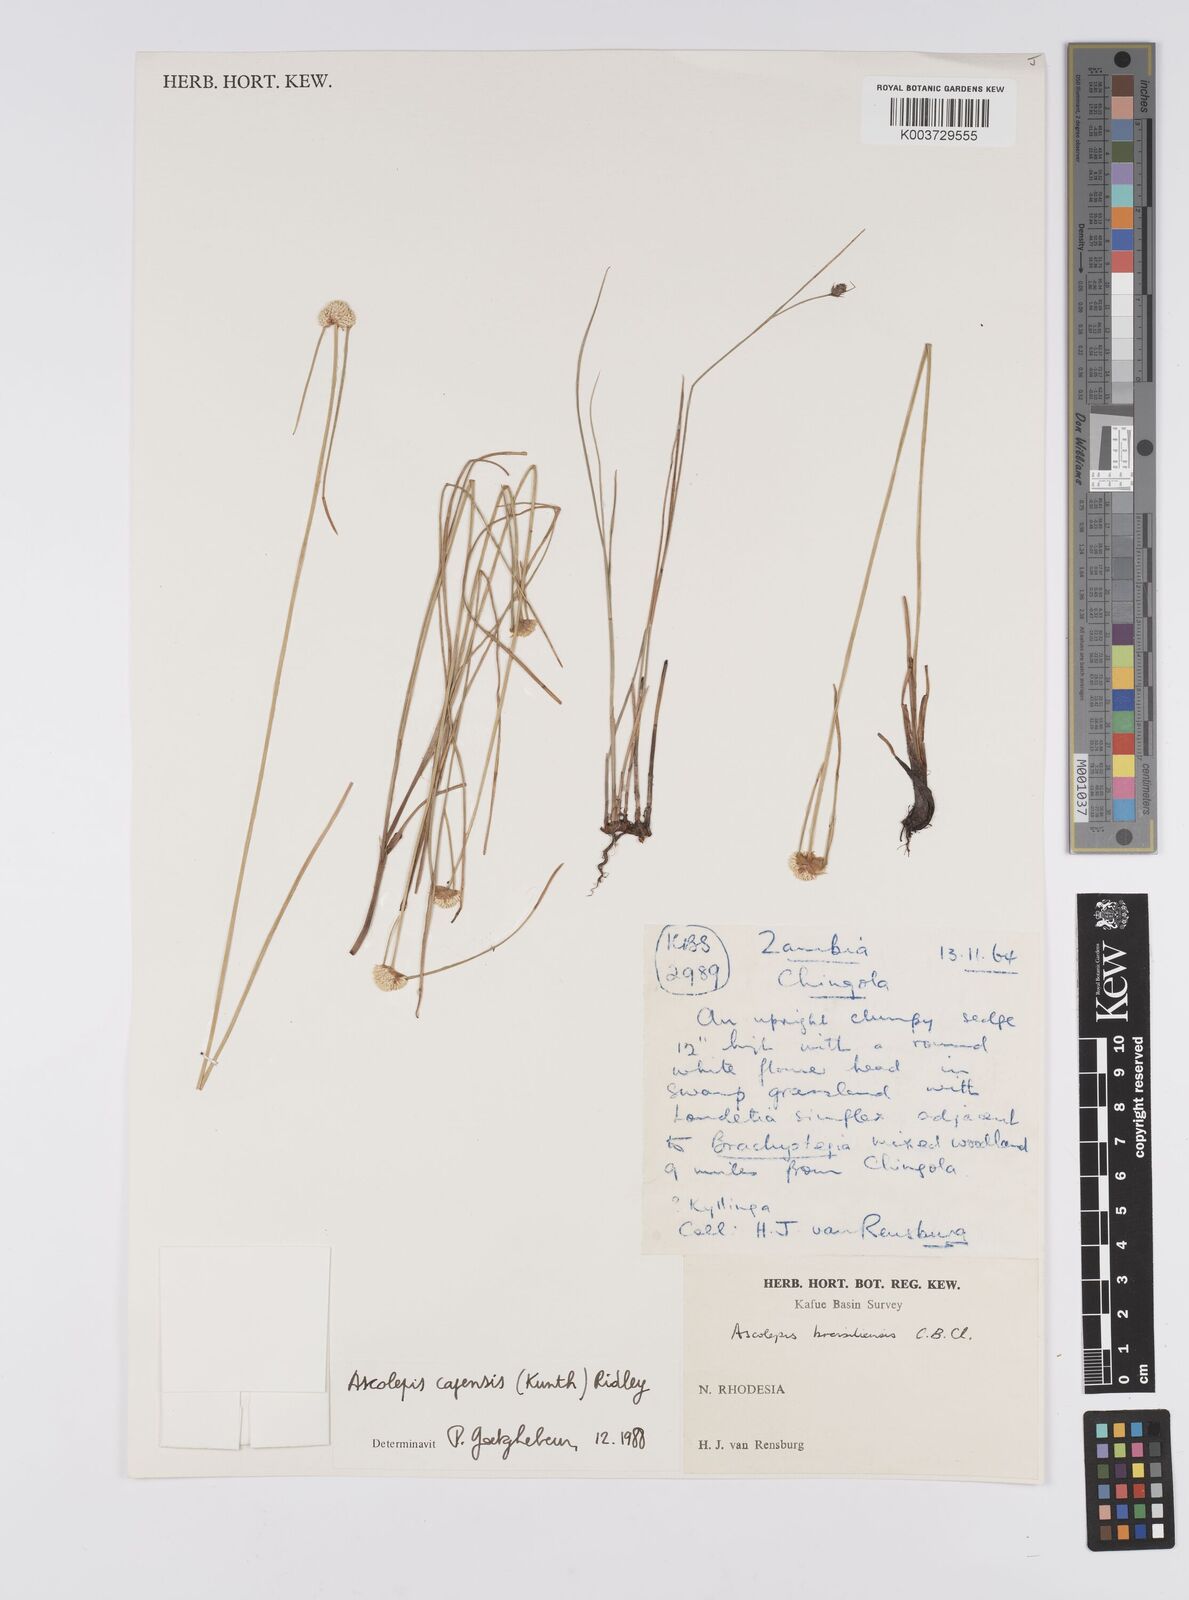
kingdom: Plantae
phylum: Tracheophyta
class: Liliopsida
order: Poales
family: Cyperaceae
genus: Cyperus
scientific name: Cyperus
